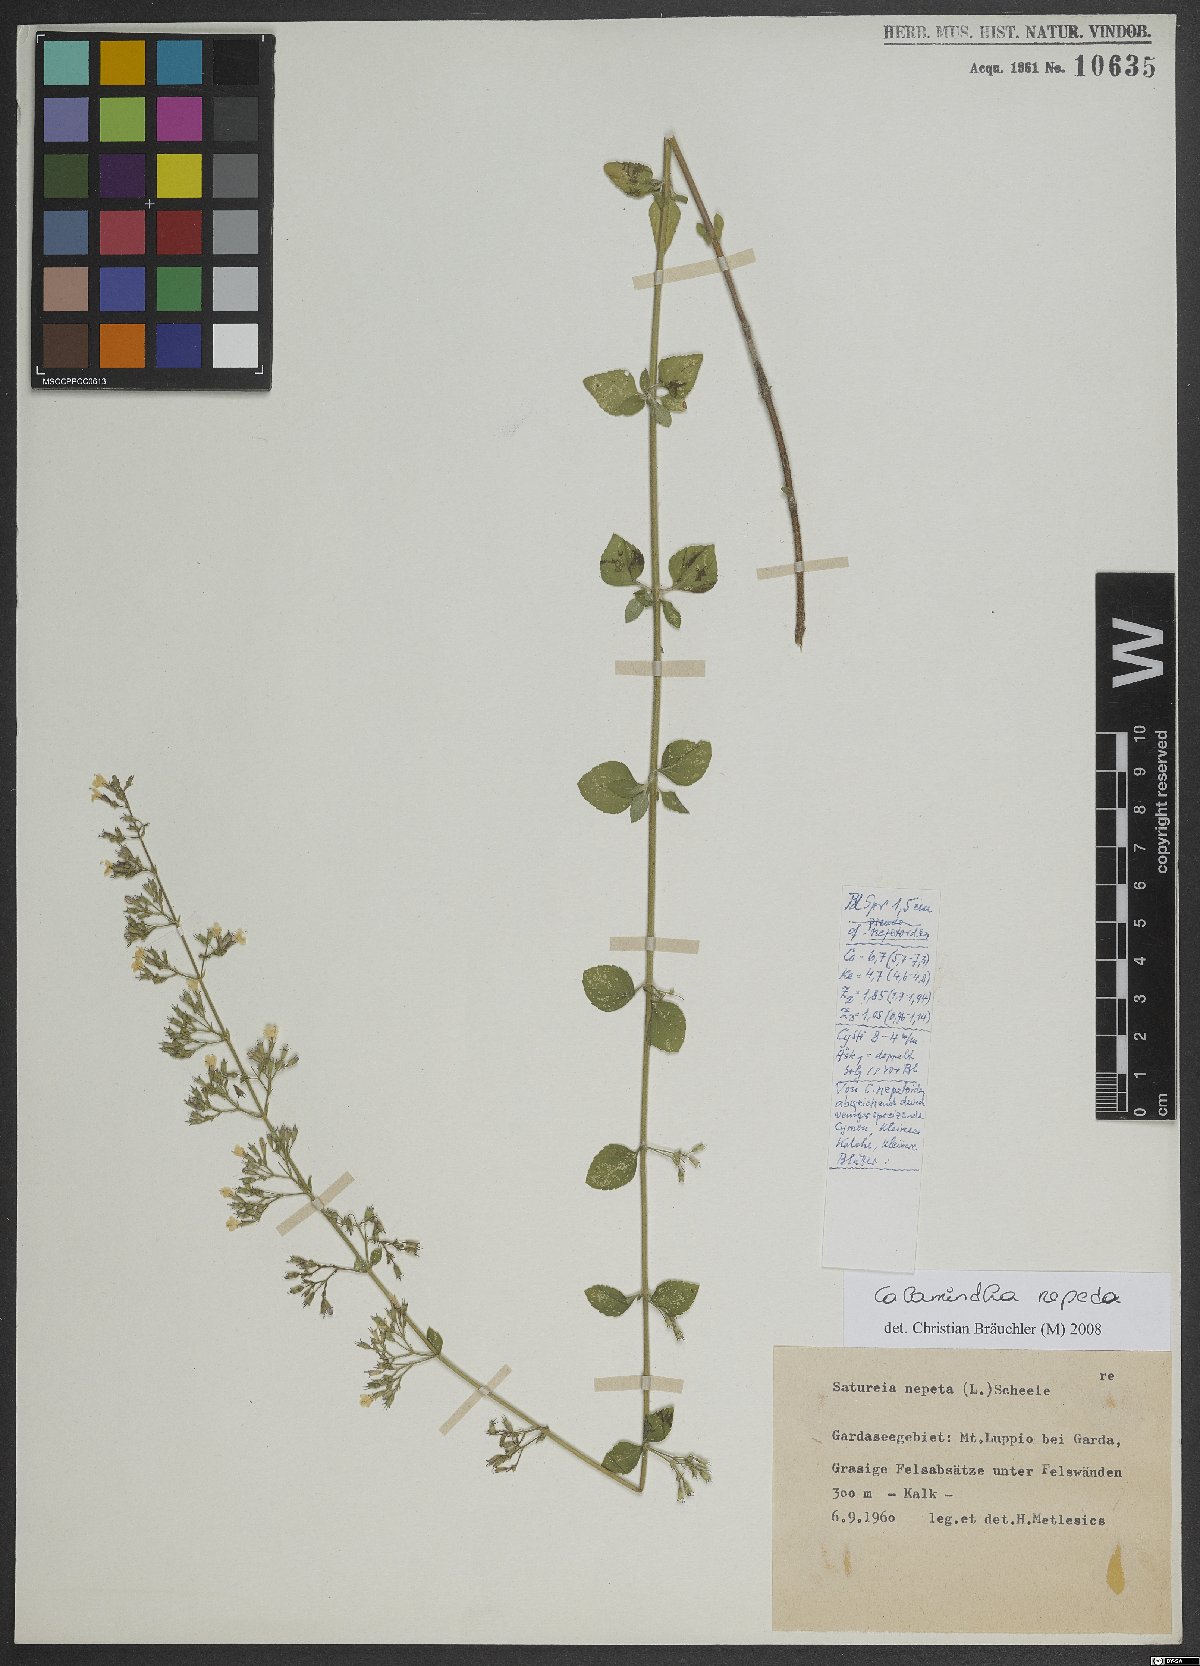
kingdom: Plantae
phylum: Tracheophyta
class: Magnoliopsida
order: Lamiales
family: Lamiaceae
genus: Clinopodium
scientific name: Clinopodium nepeta
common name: Lesser calamint
